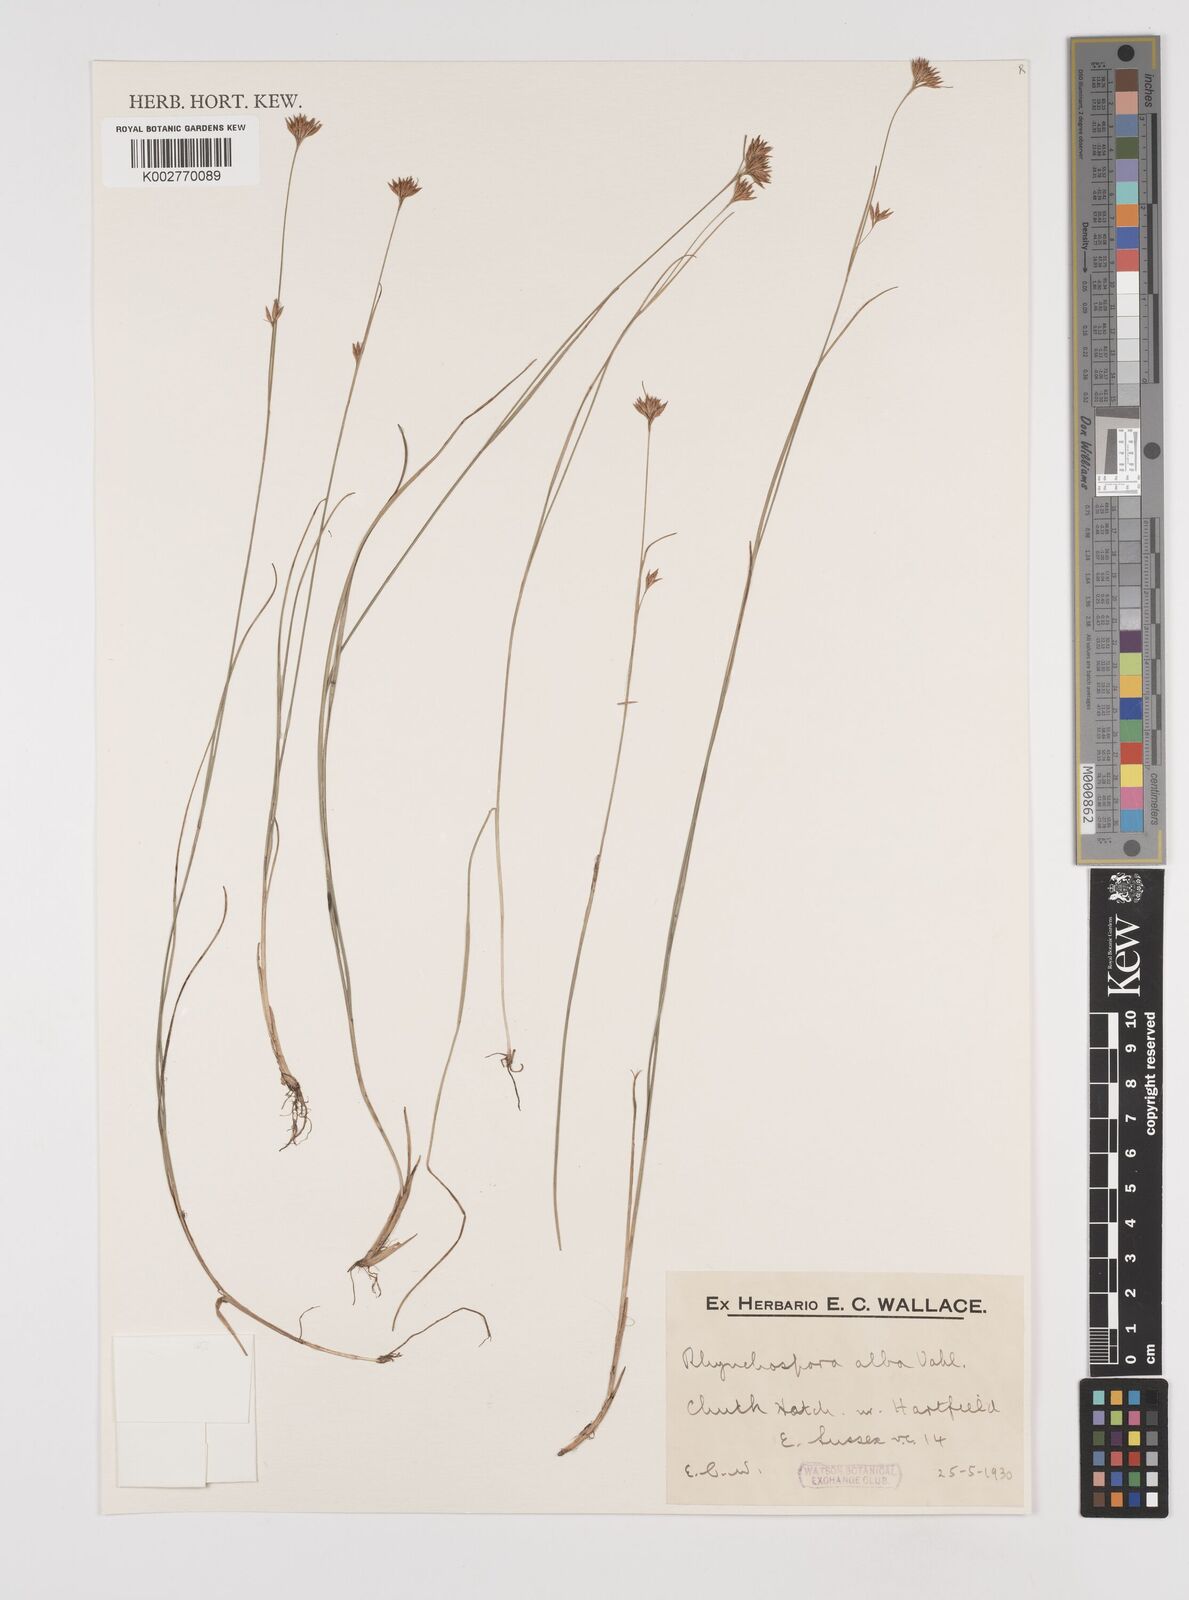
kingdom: Plantae
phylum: Tracheophyta
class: Liliopsida
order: Poales
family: Cyperaceae
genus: Rhynchospora
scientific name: Rhynchospora alba
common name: White beak-sedge
